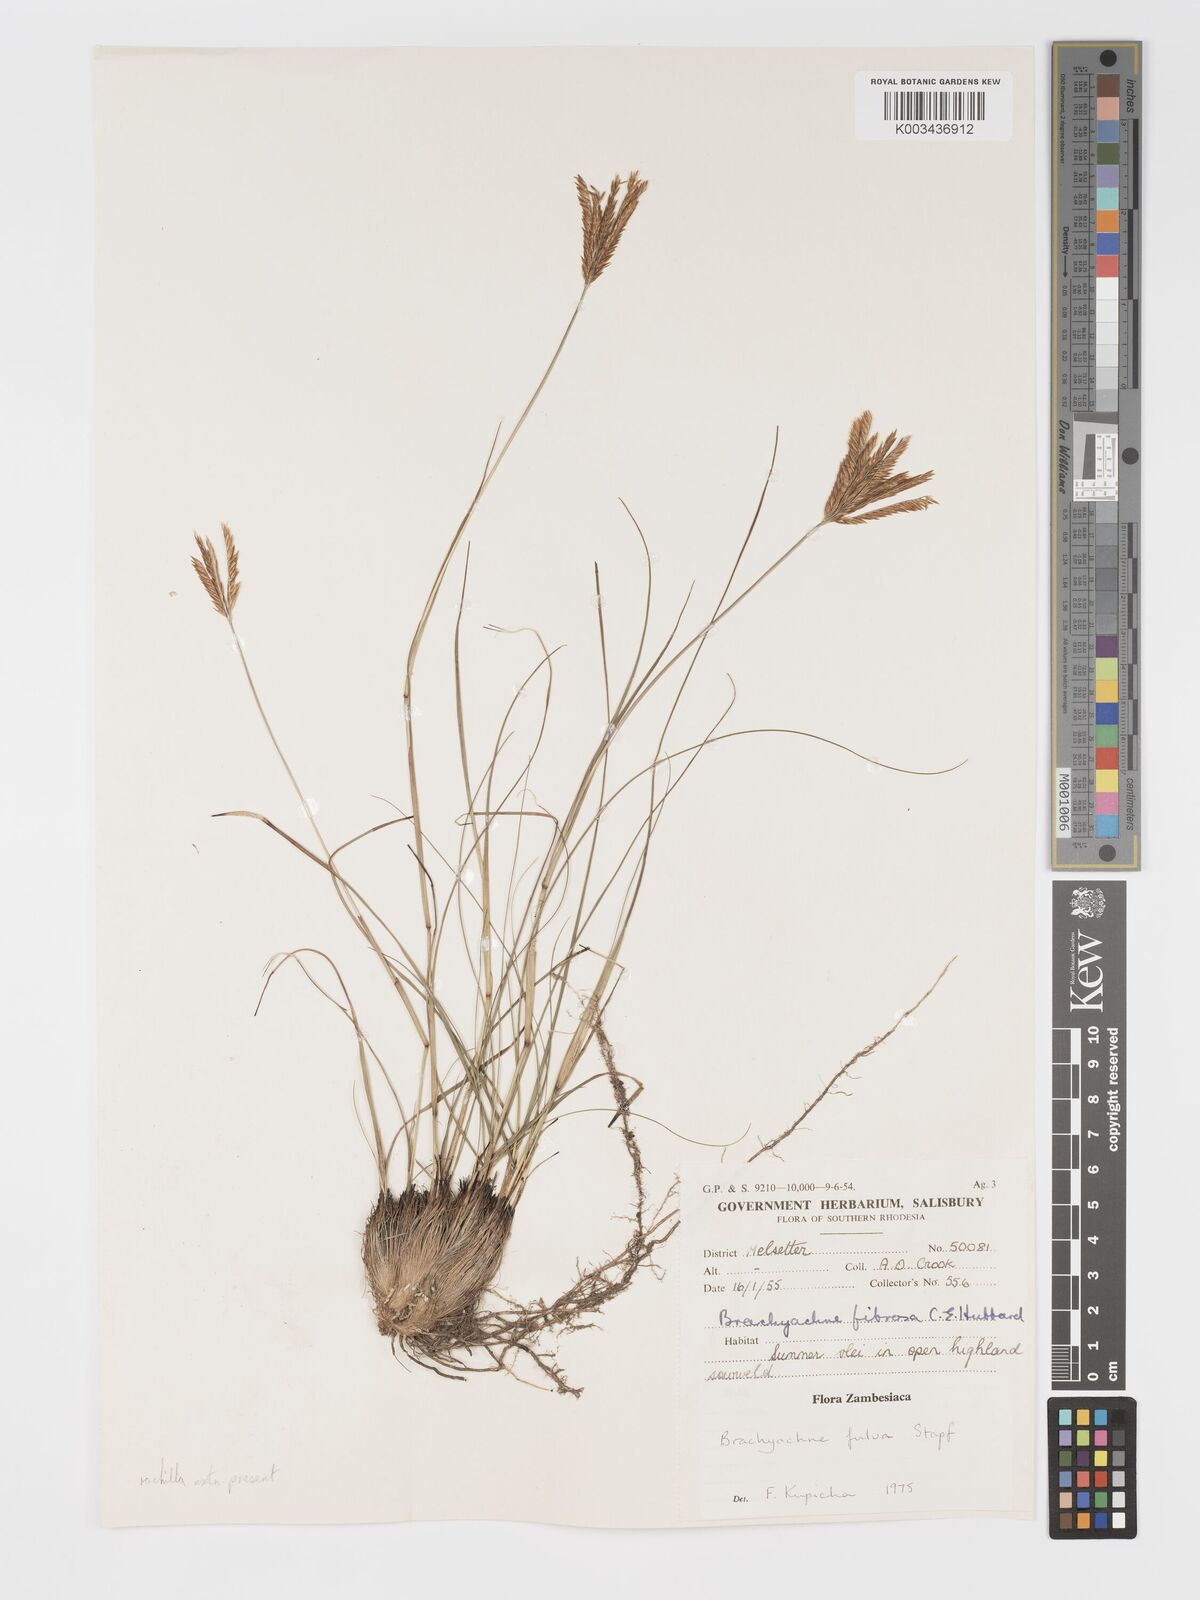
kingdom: Plantae
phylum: Tracheophyta
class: Liliopsida
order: Poales
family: Poaceae
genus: Micrachne
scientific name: Micrachne fulva
